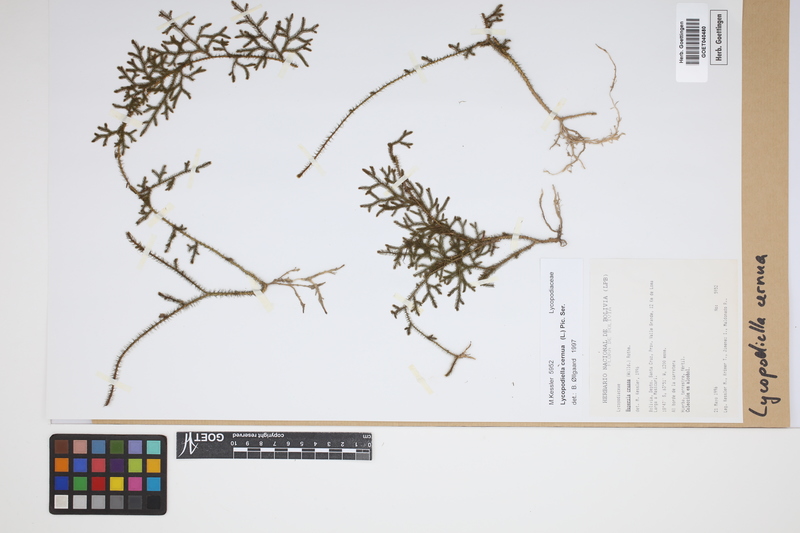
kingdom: Plantae
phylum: Tracheophyta
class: Lycopodiopsida
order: Lycopodiales
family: Lycopodiaceae
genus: Palhinhaea
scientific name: Palhinhaea cernua
